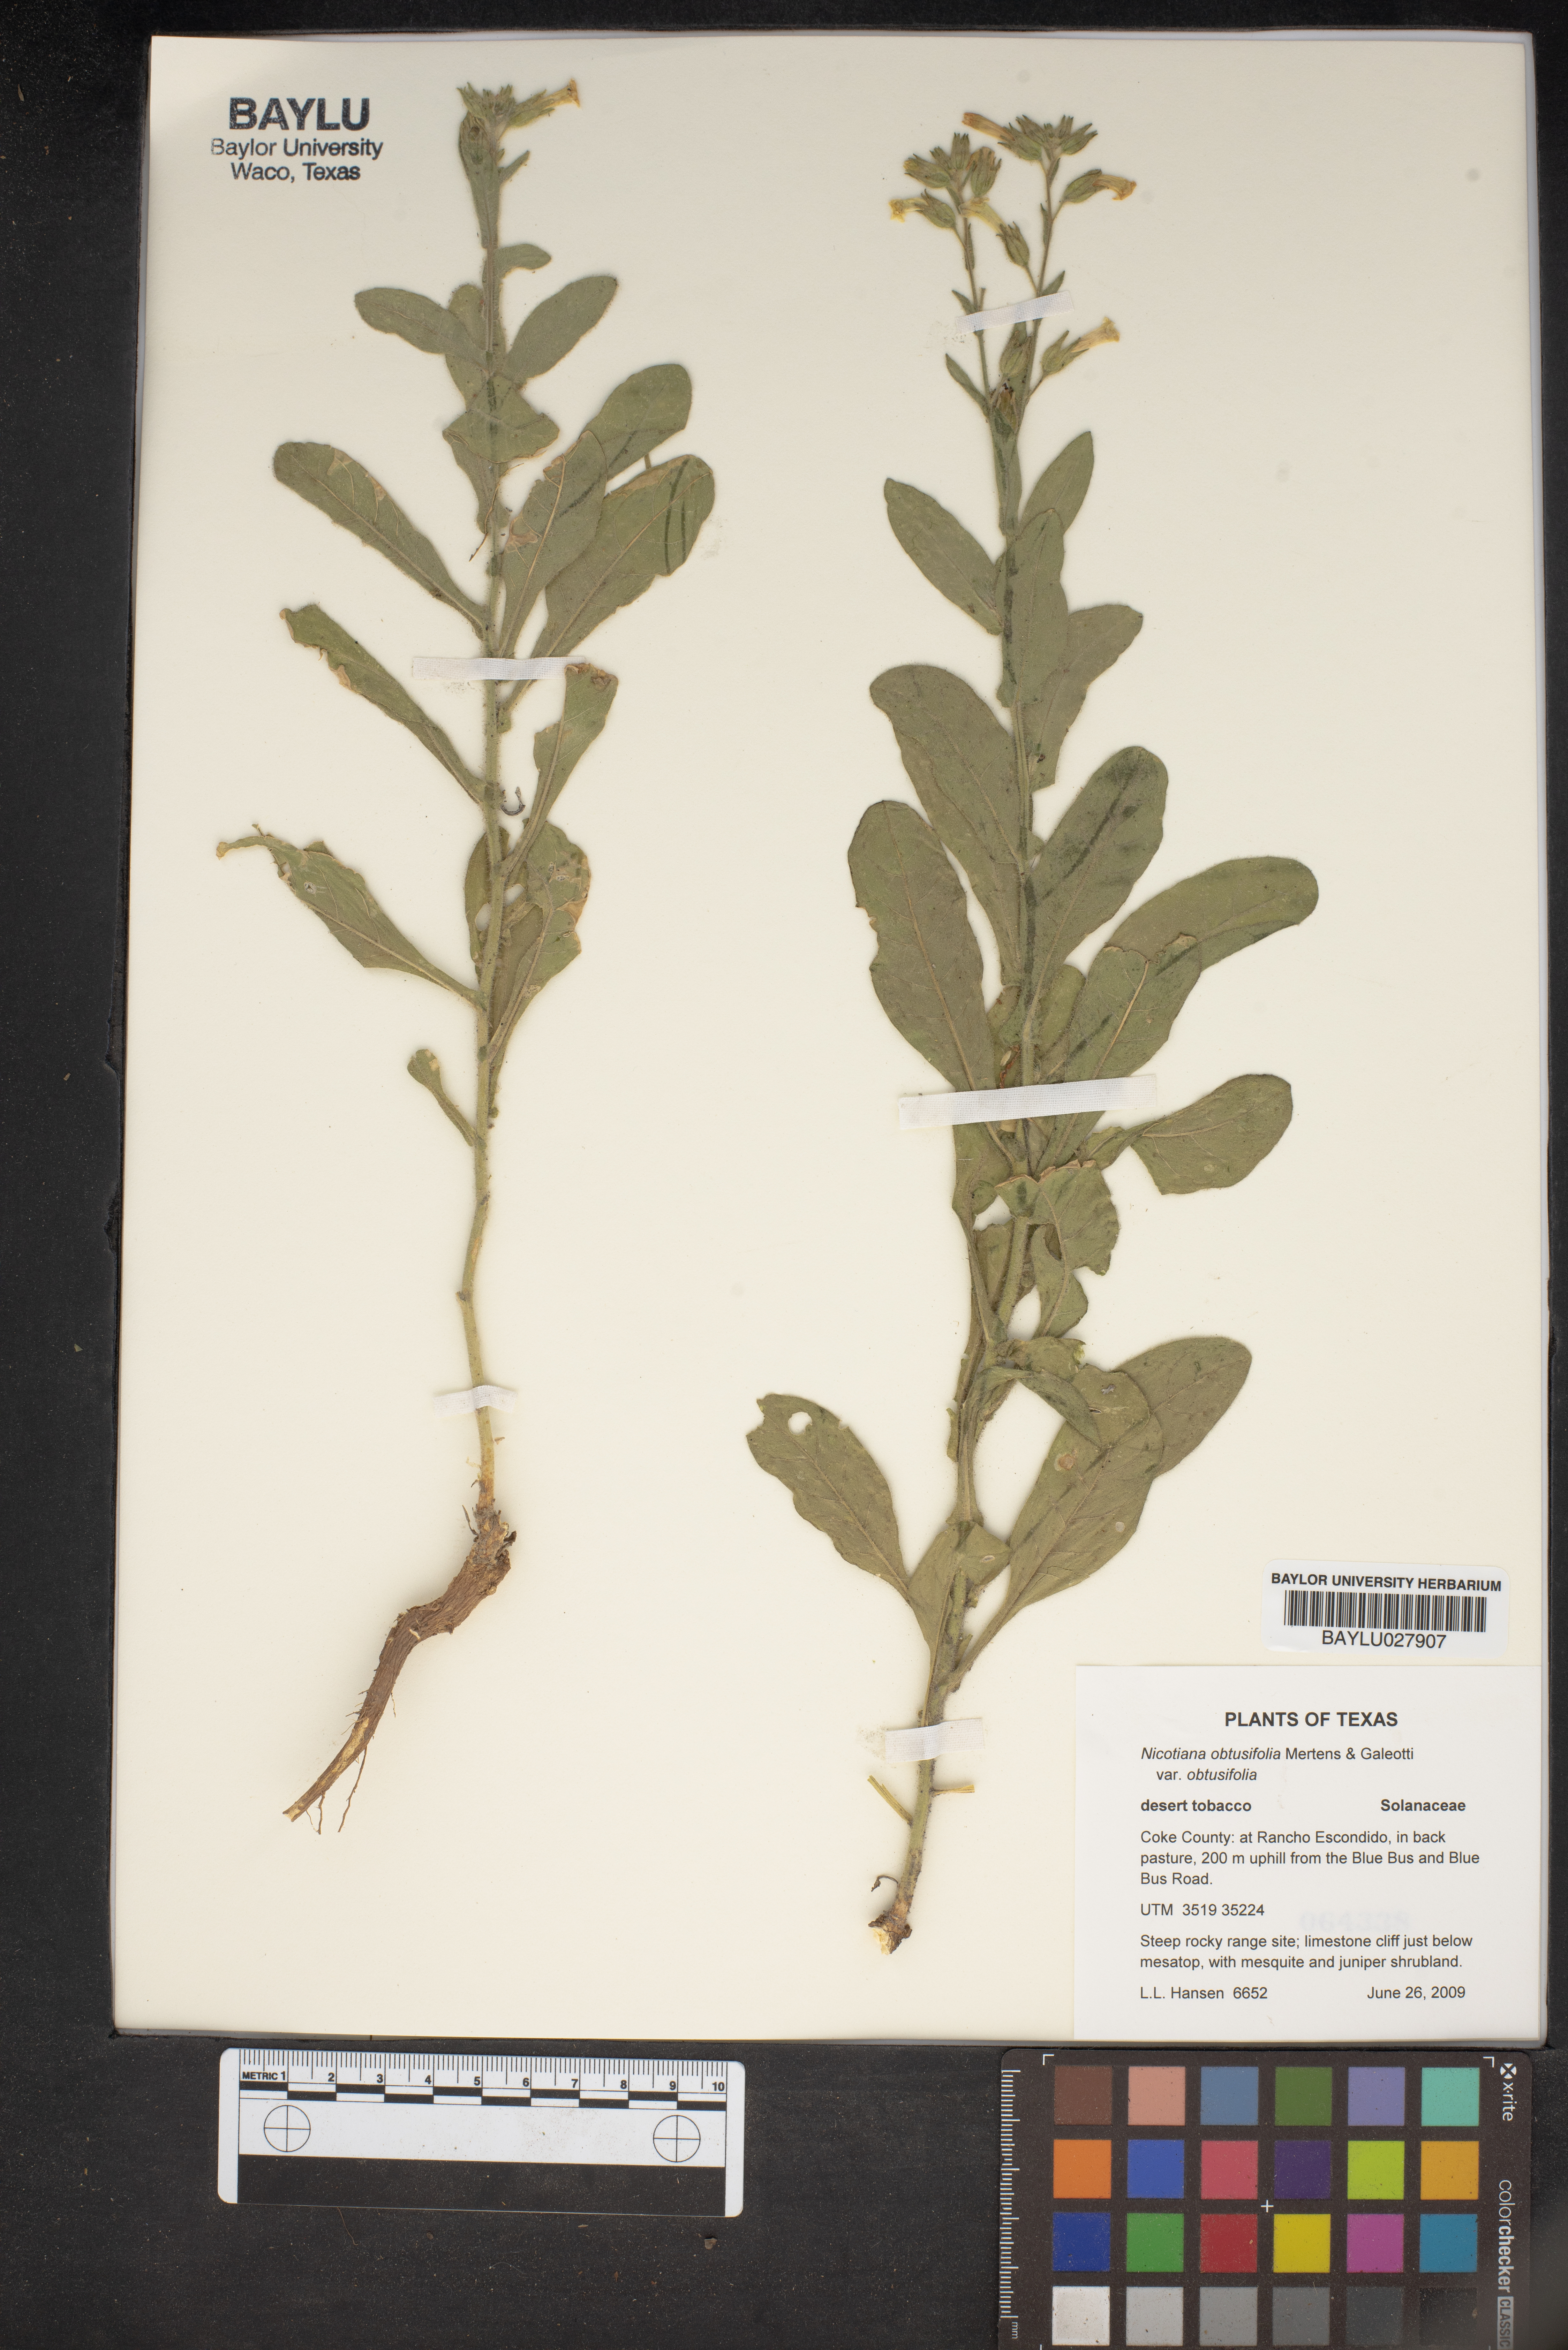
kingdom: Plantae
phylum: Tracheophyta
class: Magnoliopsida
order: Solanales
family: Solanaceae
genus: Nicotiana
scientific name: Nicotiana obtusifolia
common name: Desert tobacco
